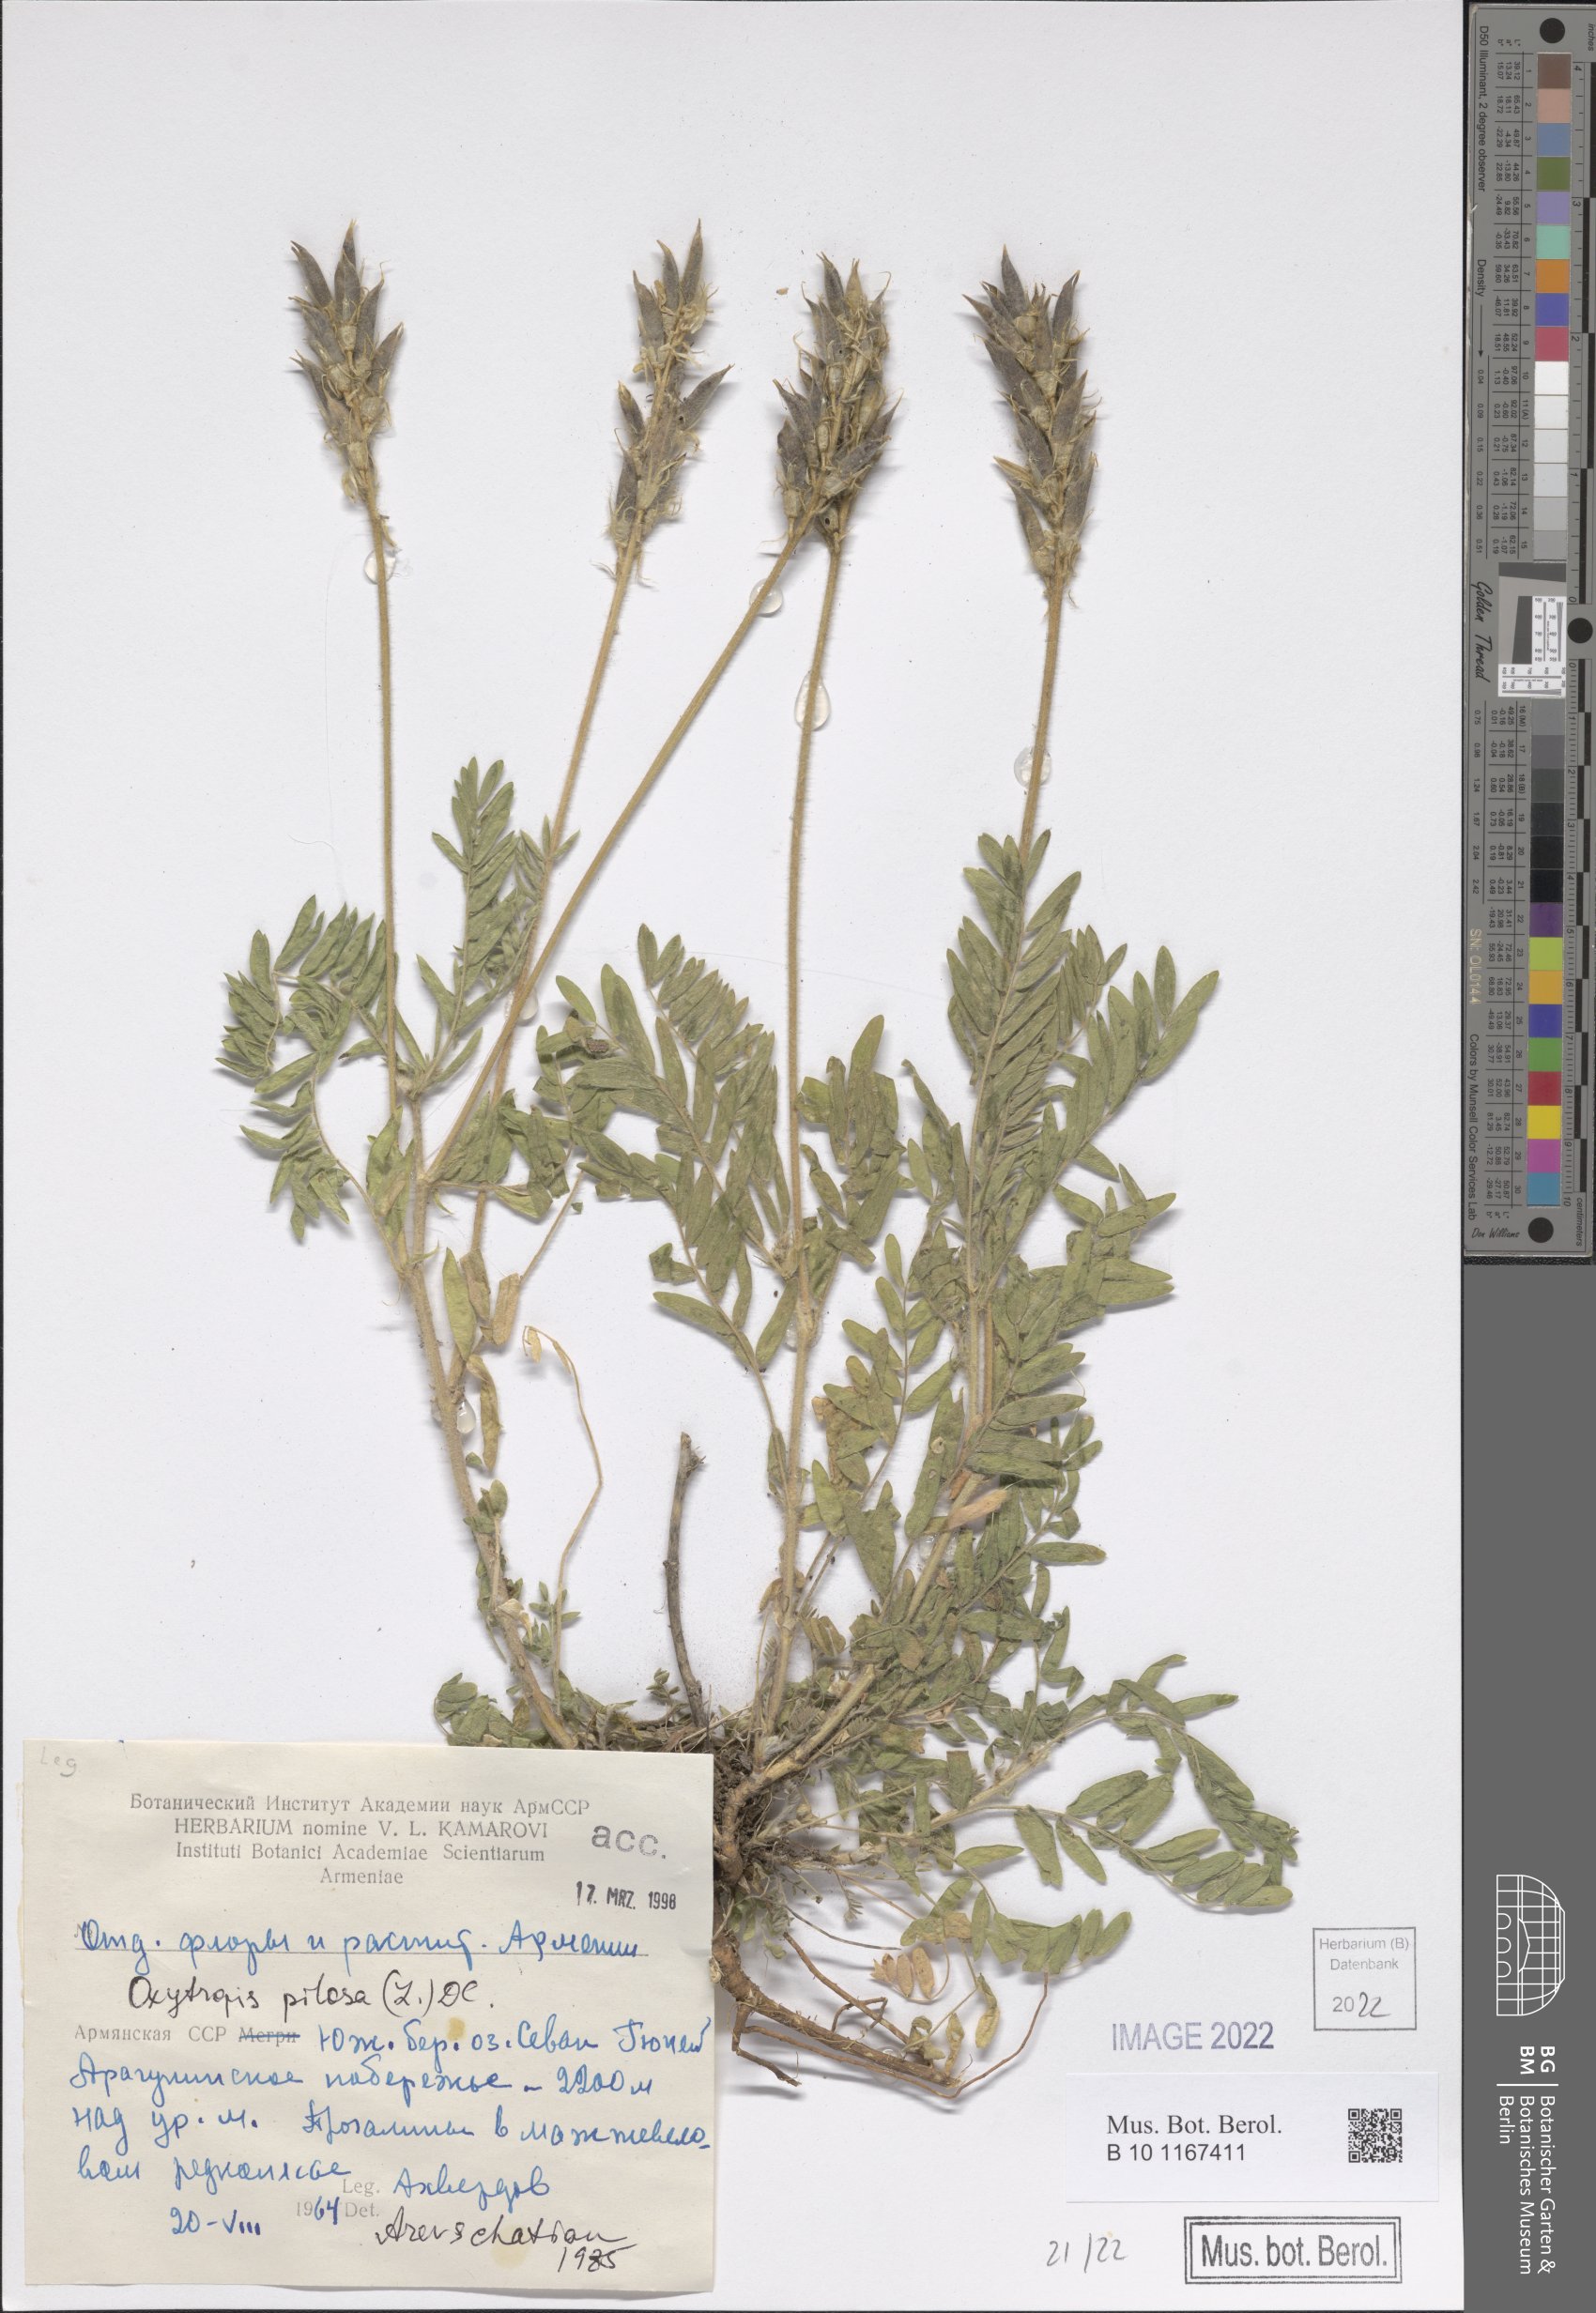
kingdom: Plantae
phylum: Tracheophyta
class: Magnoliopsida
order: Fabales
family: Fabaceae
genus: Oxytropis
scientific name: Oxytropis pilosa
